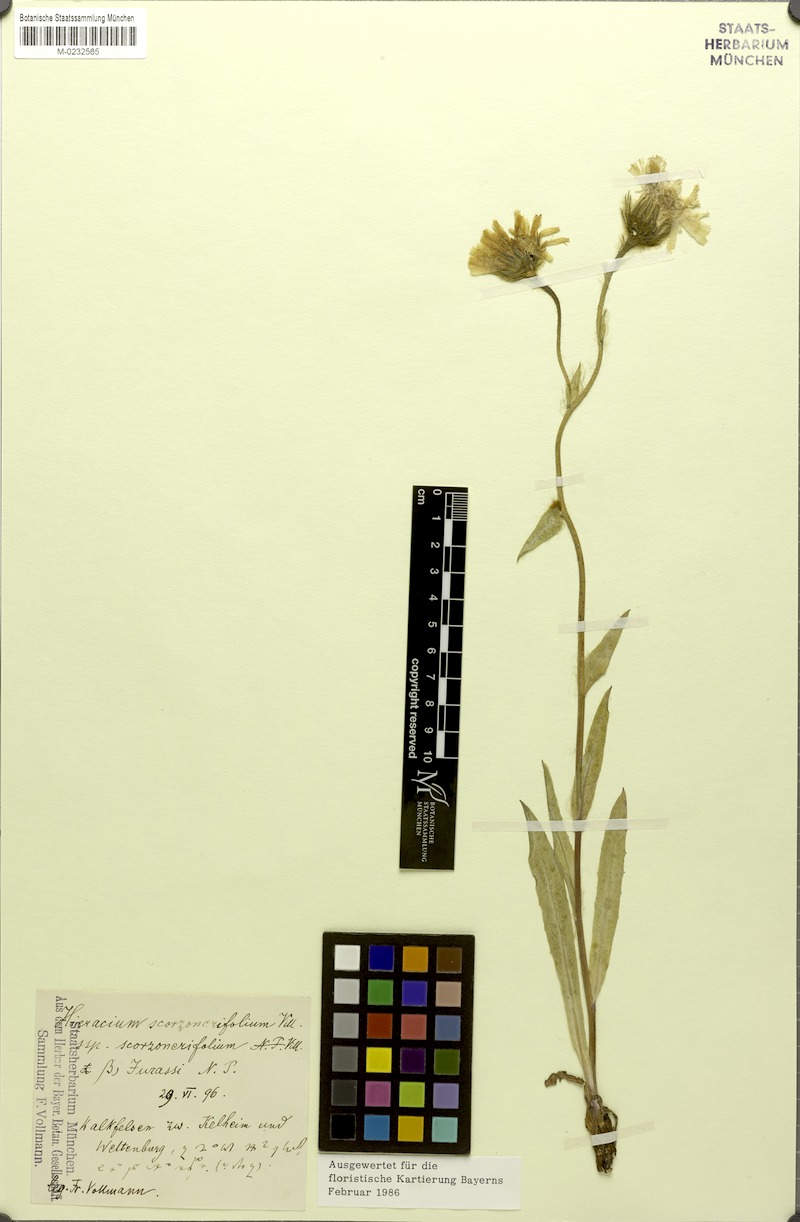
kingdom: Plantae
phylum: Tracheophyta
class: Magnoliopsida
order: Asterales
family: Asteraceae
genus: Hieracium
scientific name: Hieracium scorzonerifolium
